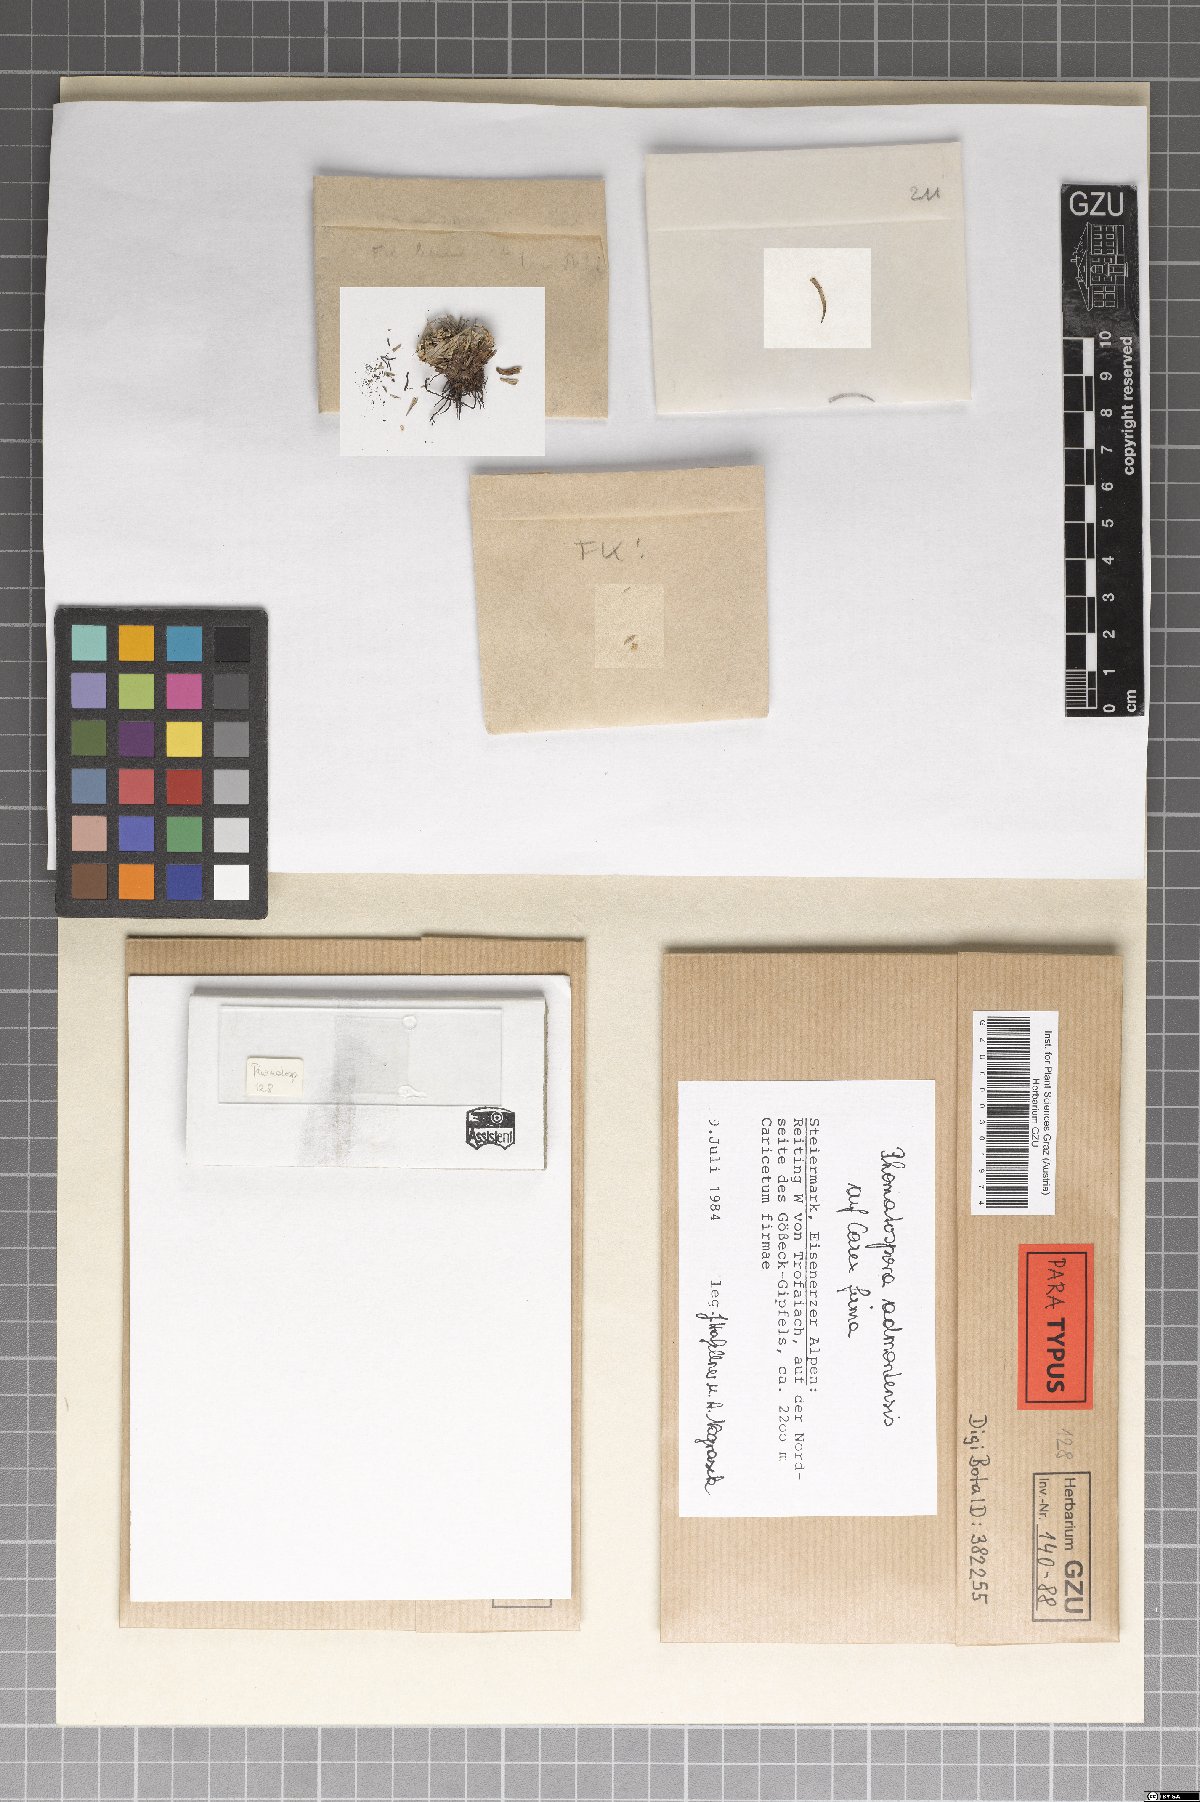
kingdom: Fungi
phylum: Ascomycota
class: Sordariomycetes
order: Phomatosporales
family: Phomatosporaceae
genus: Phomatospora
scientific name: Phomatospora admontensis
